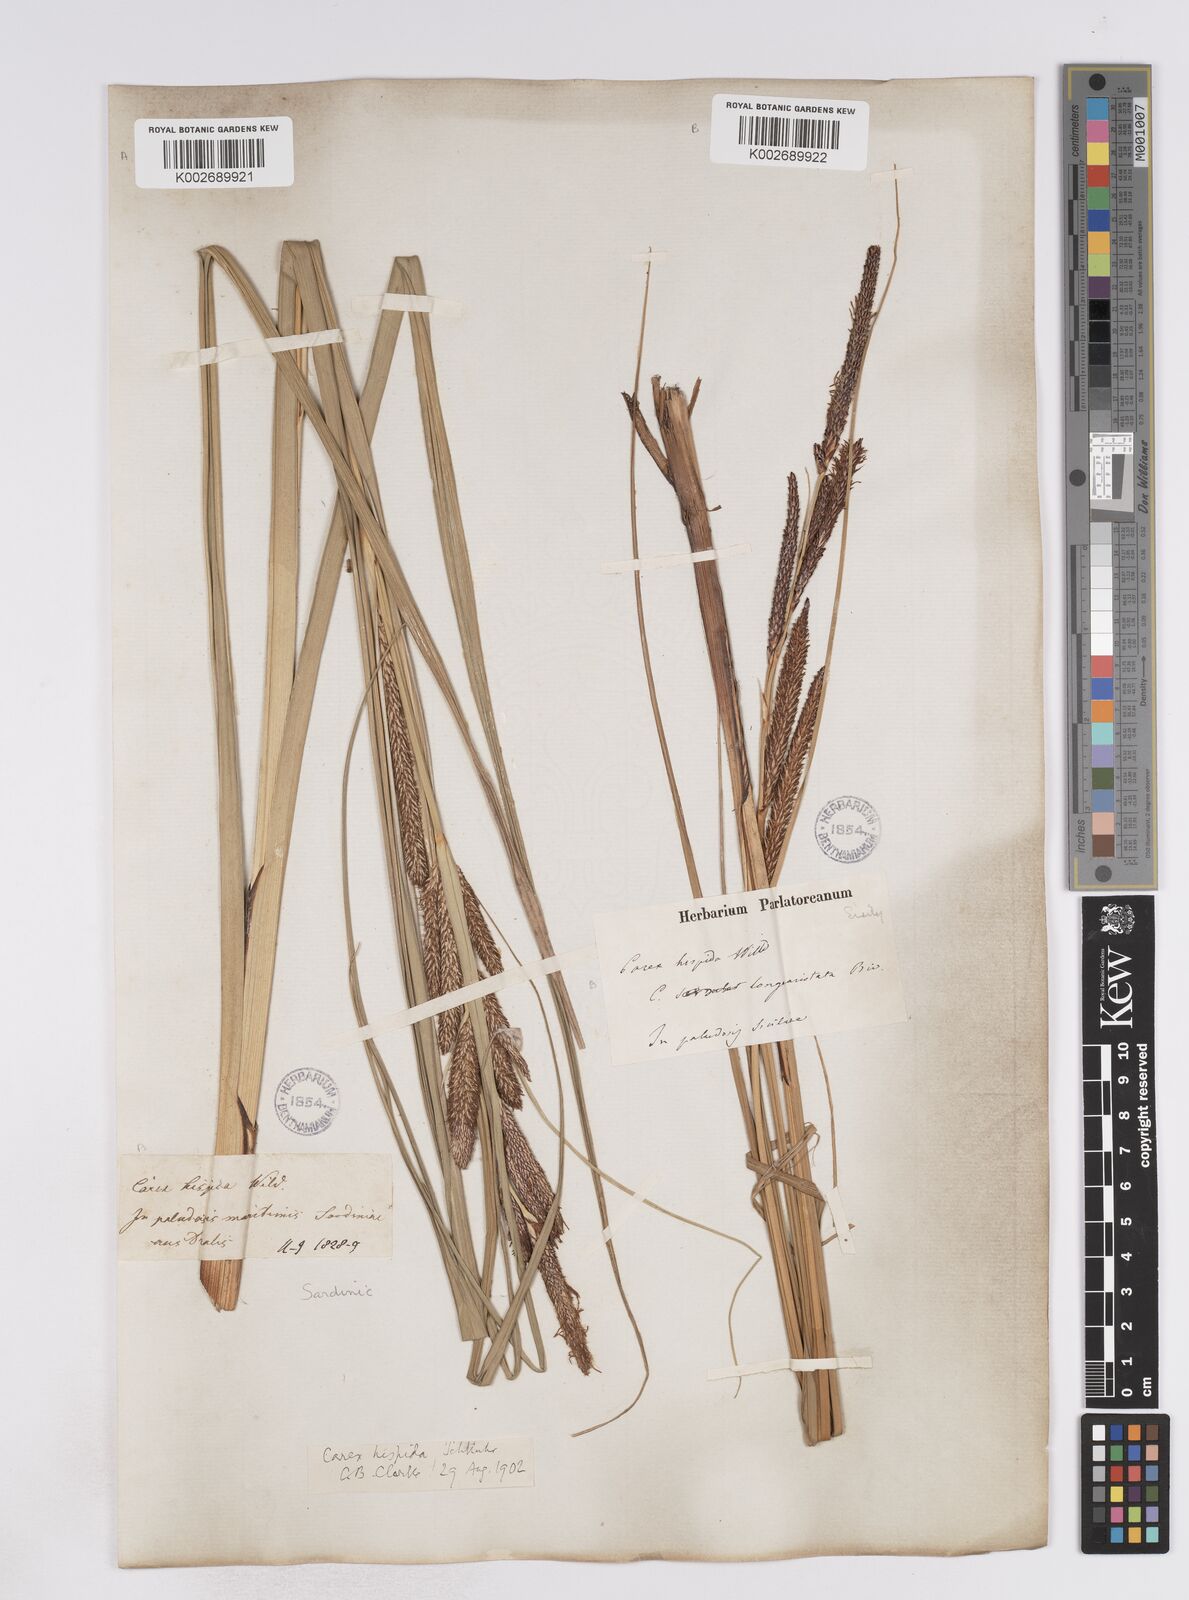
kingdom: Plantae
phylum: Tracheophyta
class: Liliopsida
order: Poales
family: Cyperaceae
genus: Carex
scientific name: Carex hispida
